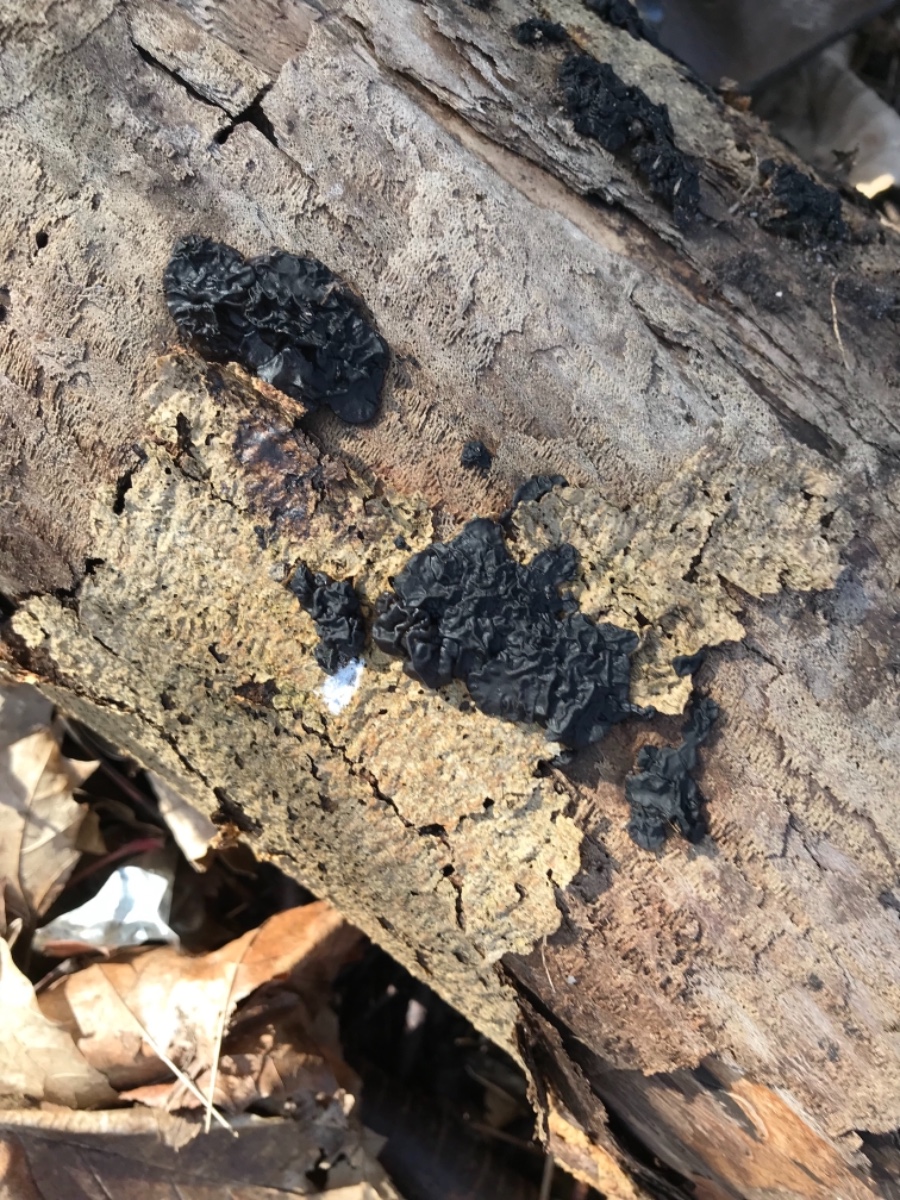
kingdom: Fungi
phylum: Basidiomycota
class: Agaricomycetes
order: Auriculariales
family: Auriculariaceae
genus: Exidia
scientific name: Exidia nigricans
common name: almindelig bævretop
